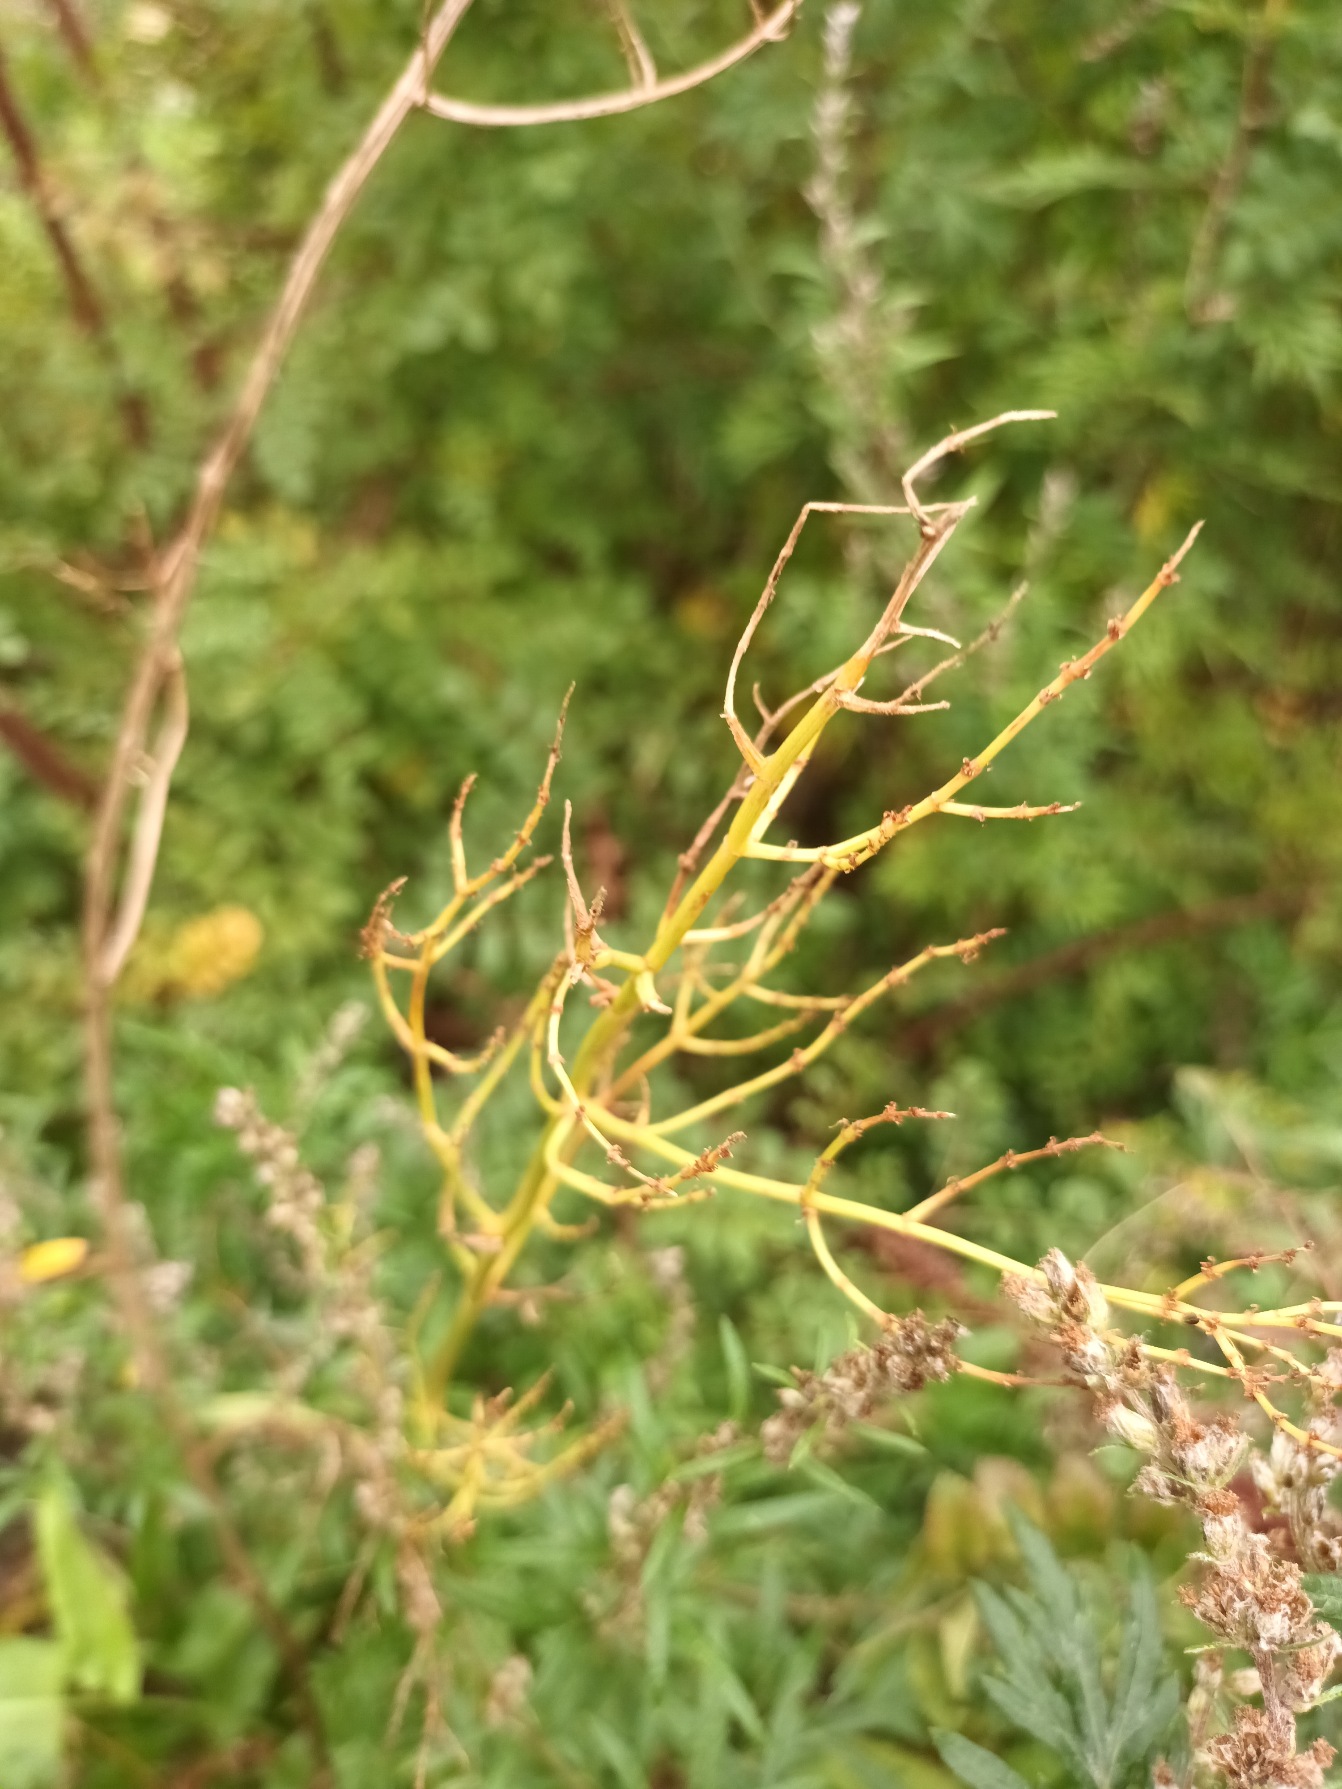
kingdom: Plantae
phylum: Tracheophyta
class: Magnoliopsida
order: Caryophyllales
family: Polygonaceae
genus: Rumex
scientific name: Rumex thyrsiflorus
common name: Dusk-syre
